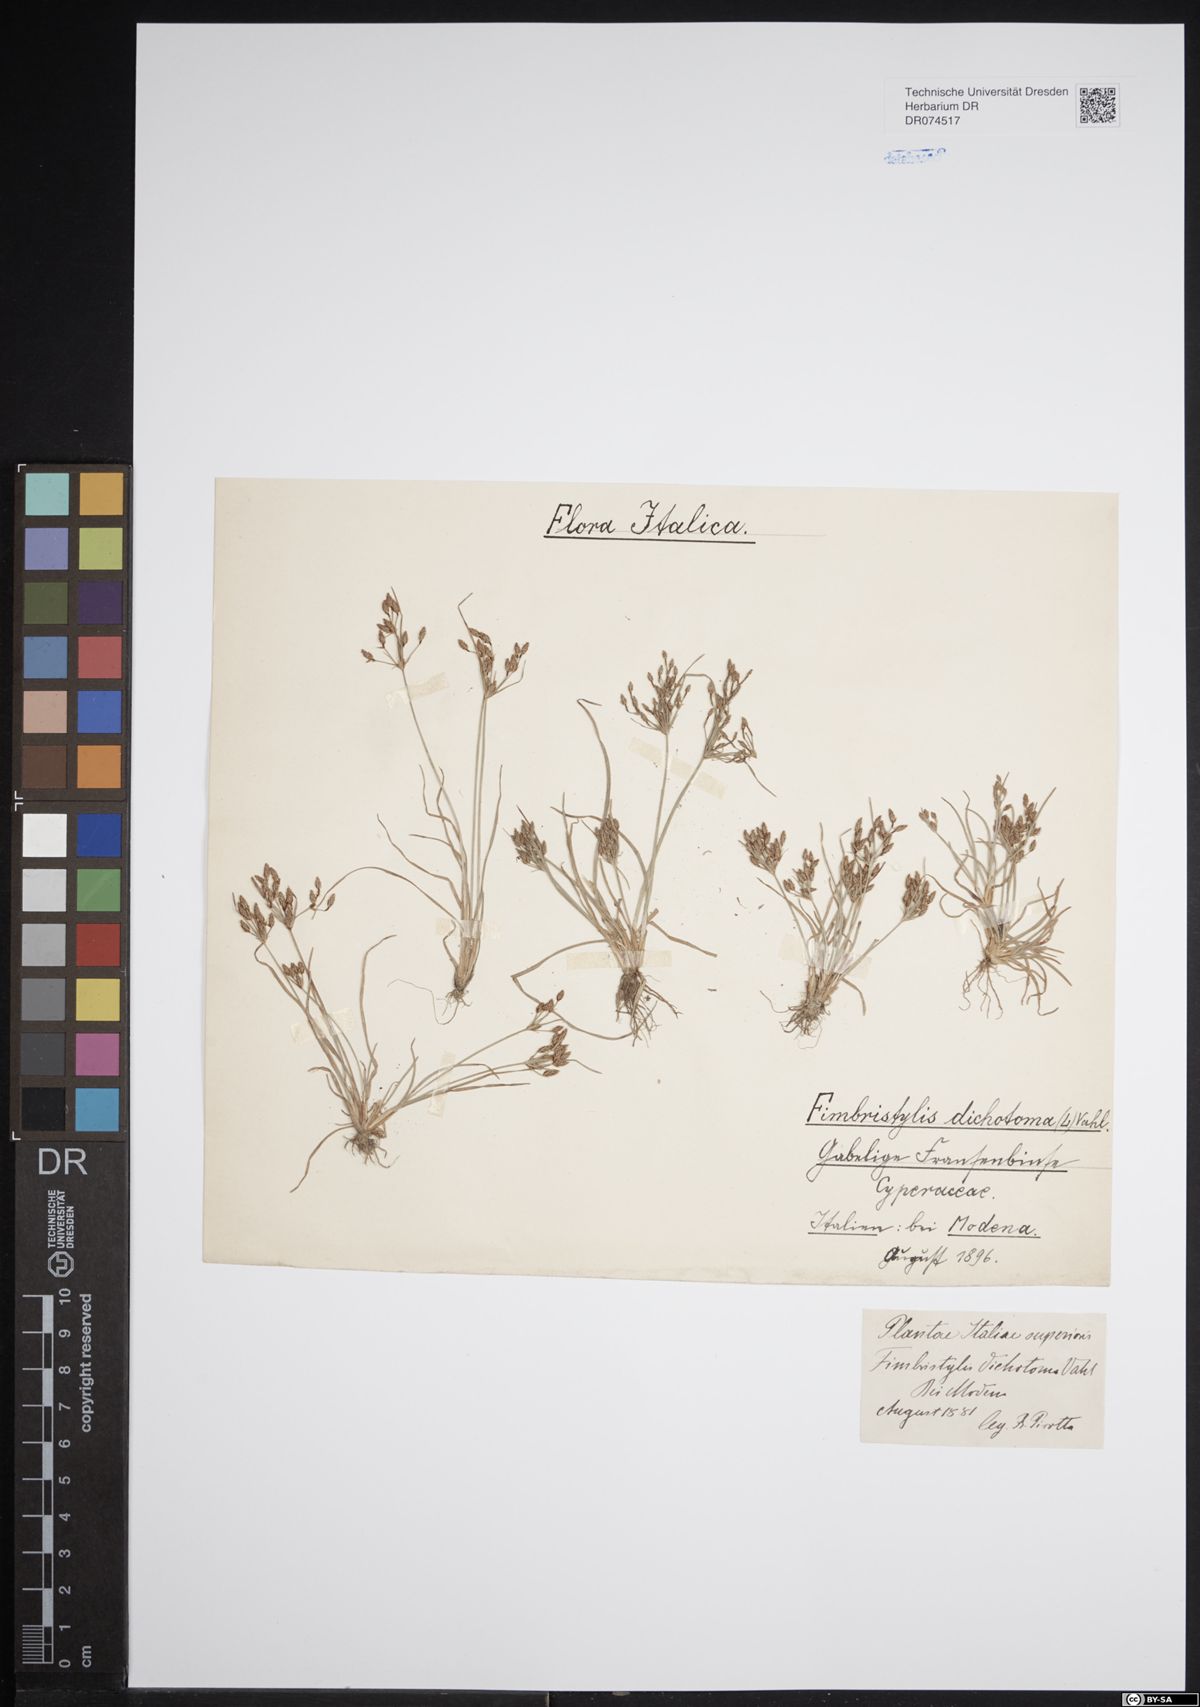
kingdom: Plantae
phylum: Tracheophyta
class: Liliopsida
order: Poales
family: Cyperaceae
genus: Fimbristylis
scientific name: Fimbristylis dichotoma
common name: Forked fimbry
